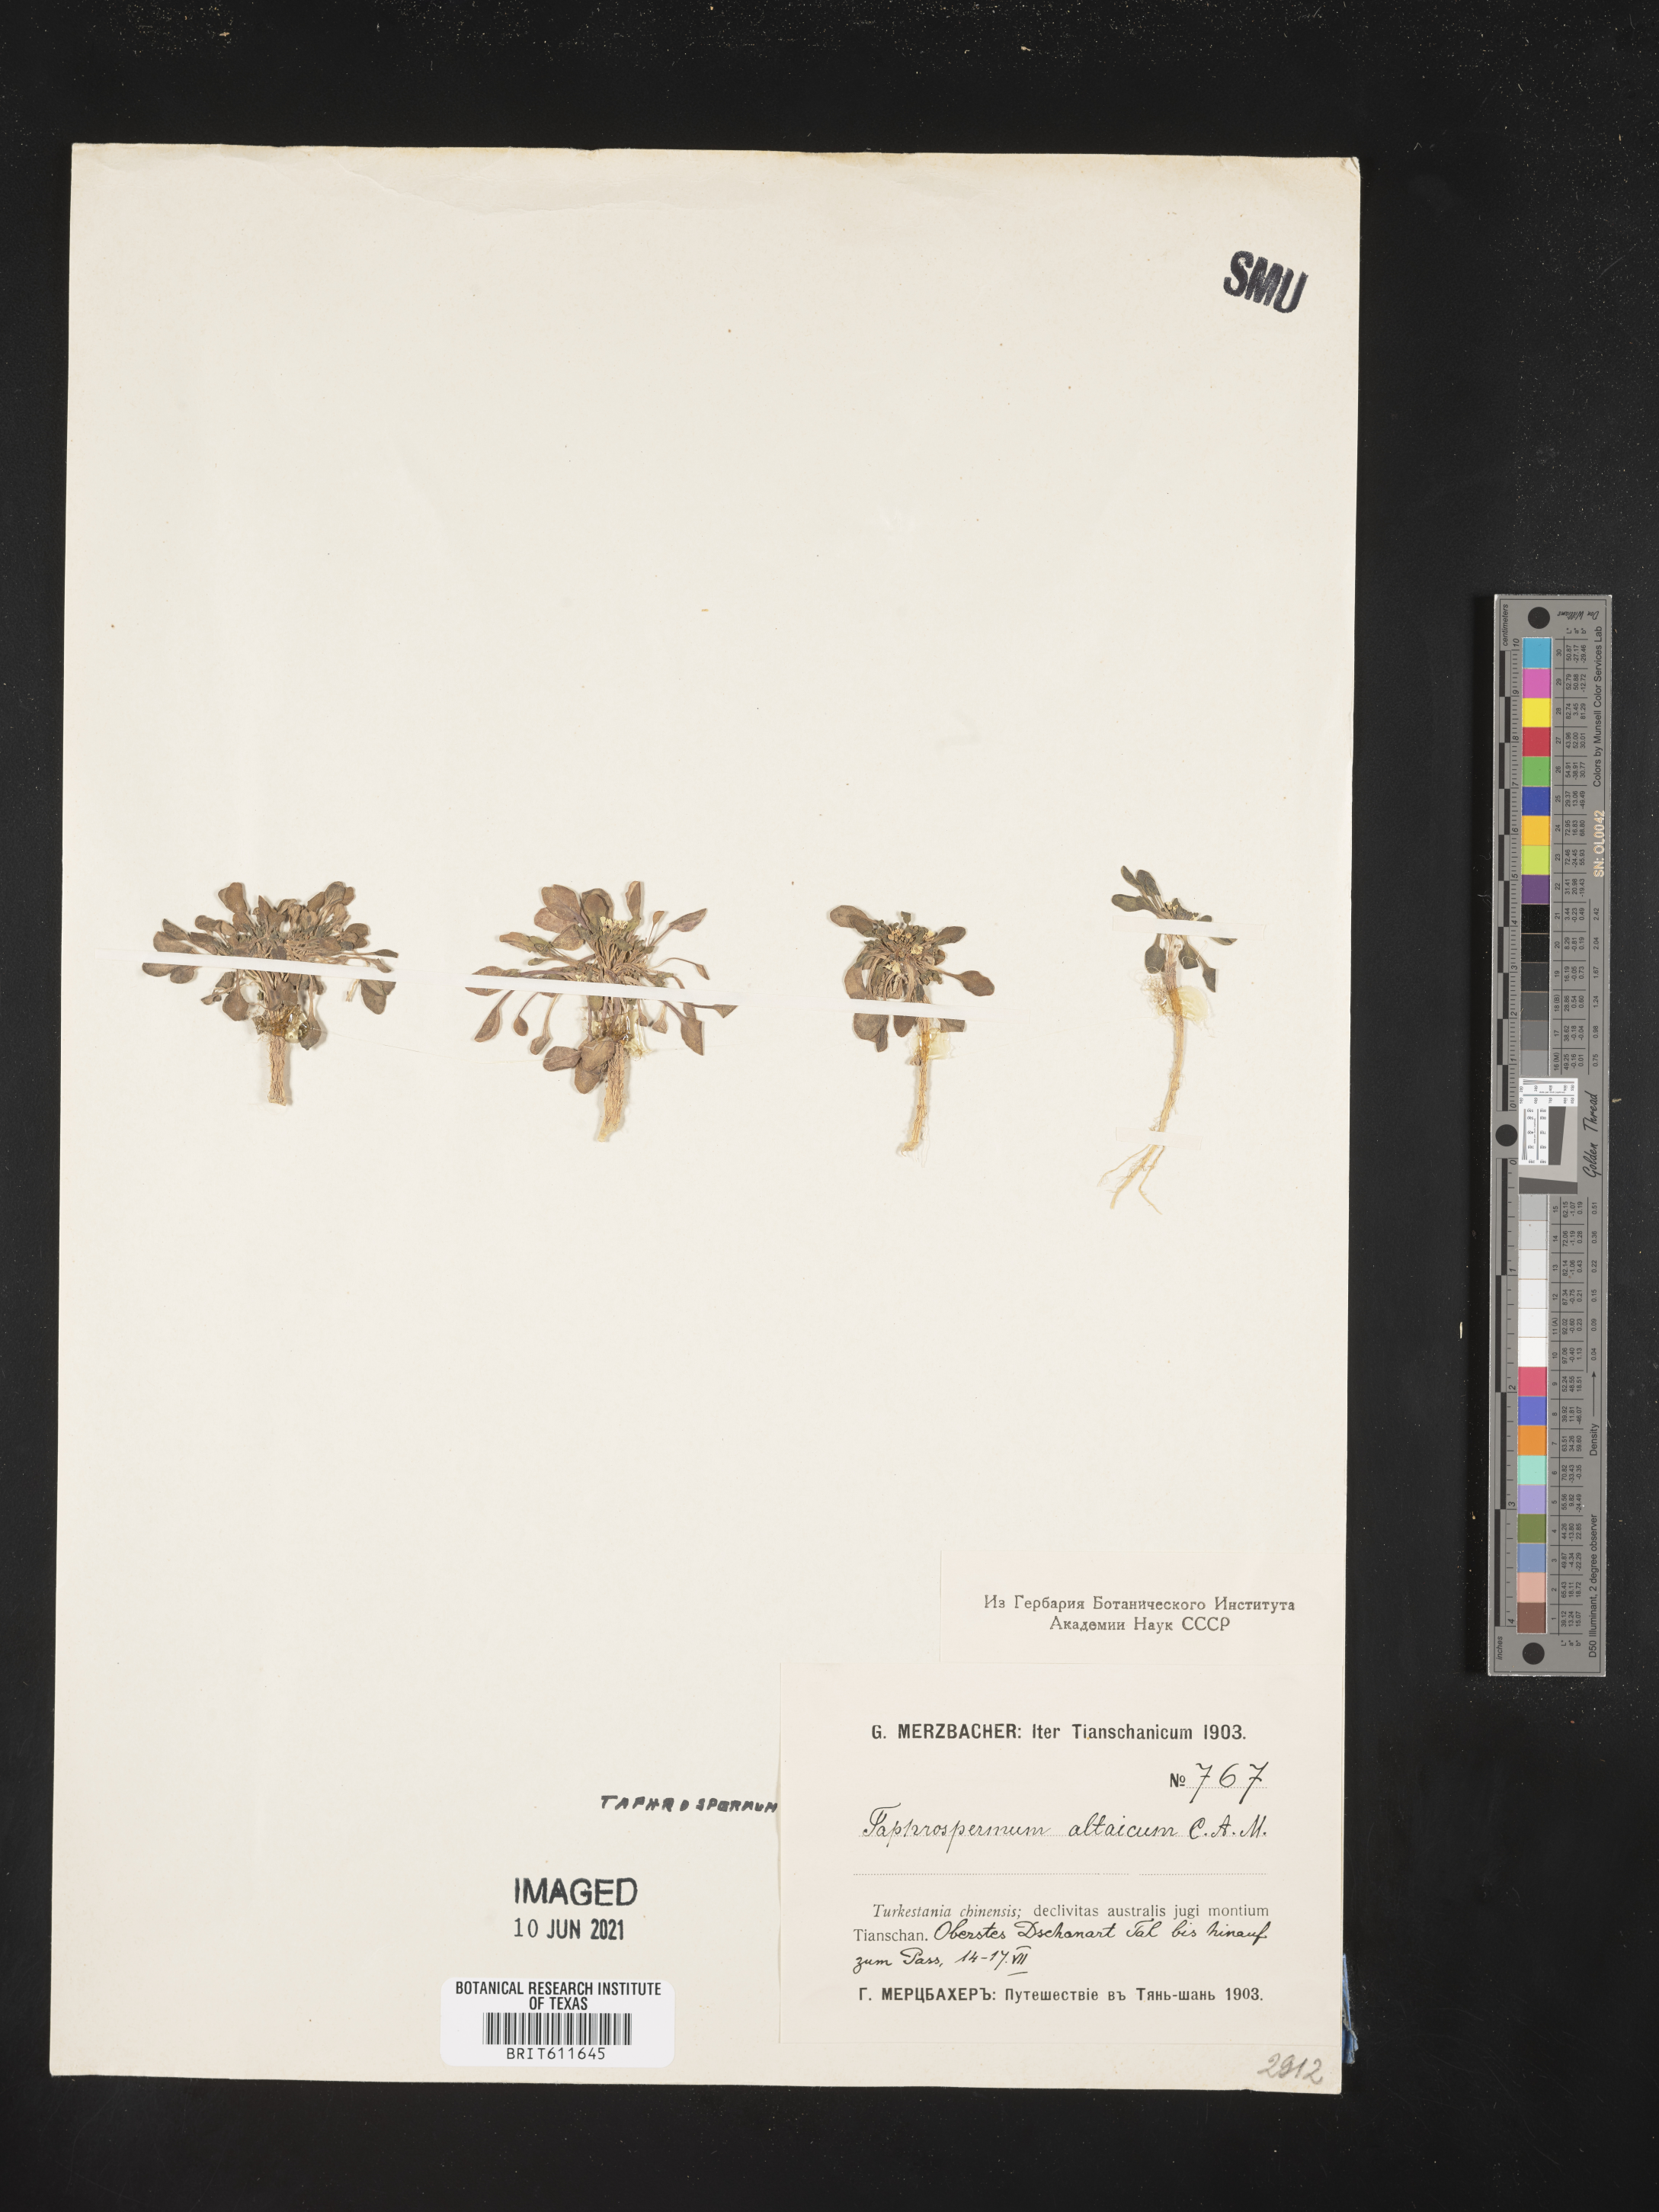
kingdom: Plantae
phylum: Tracheophyta
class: Magnoliopsida
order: Brassicales
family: Brassicaceae
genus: Eutrema
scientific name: Eutrema altaicum
